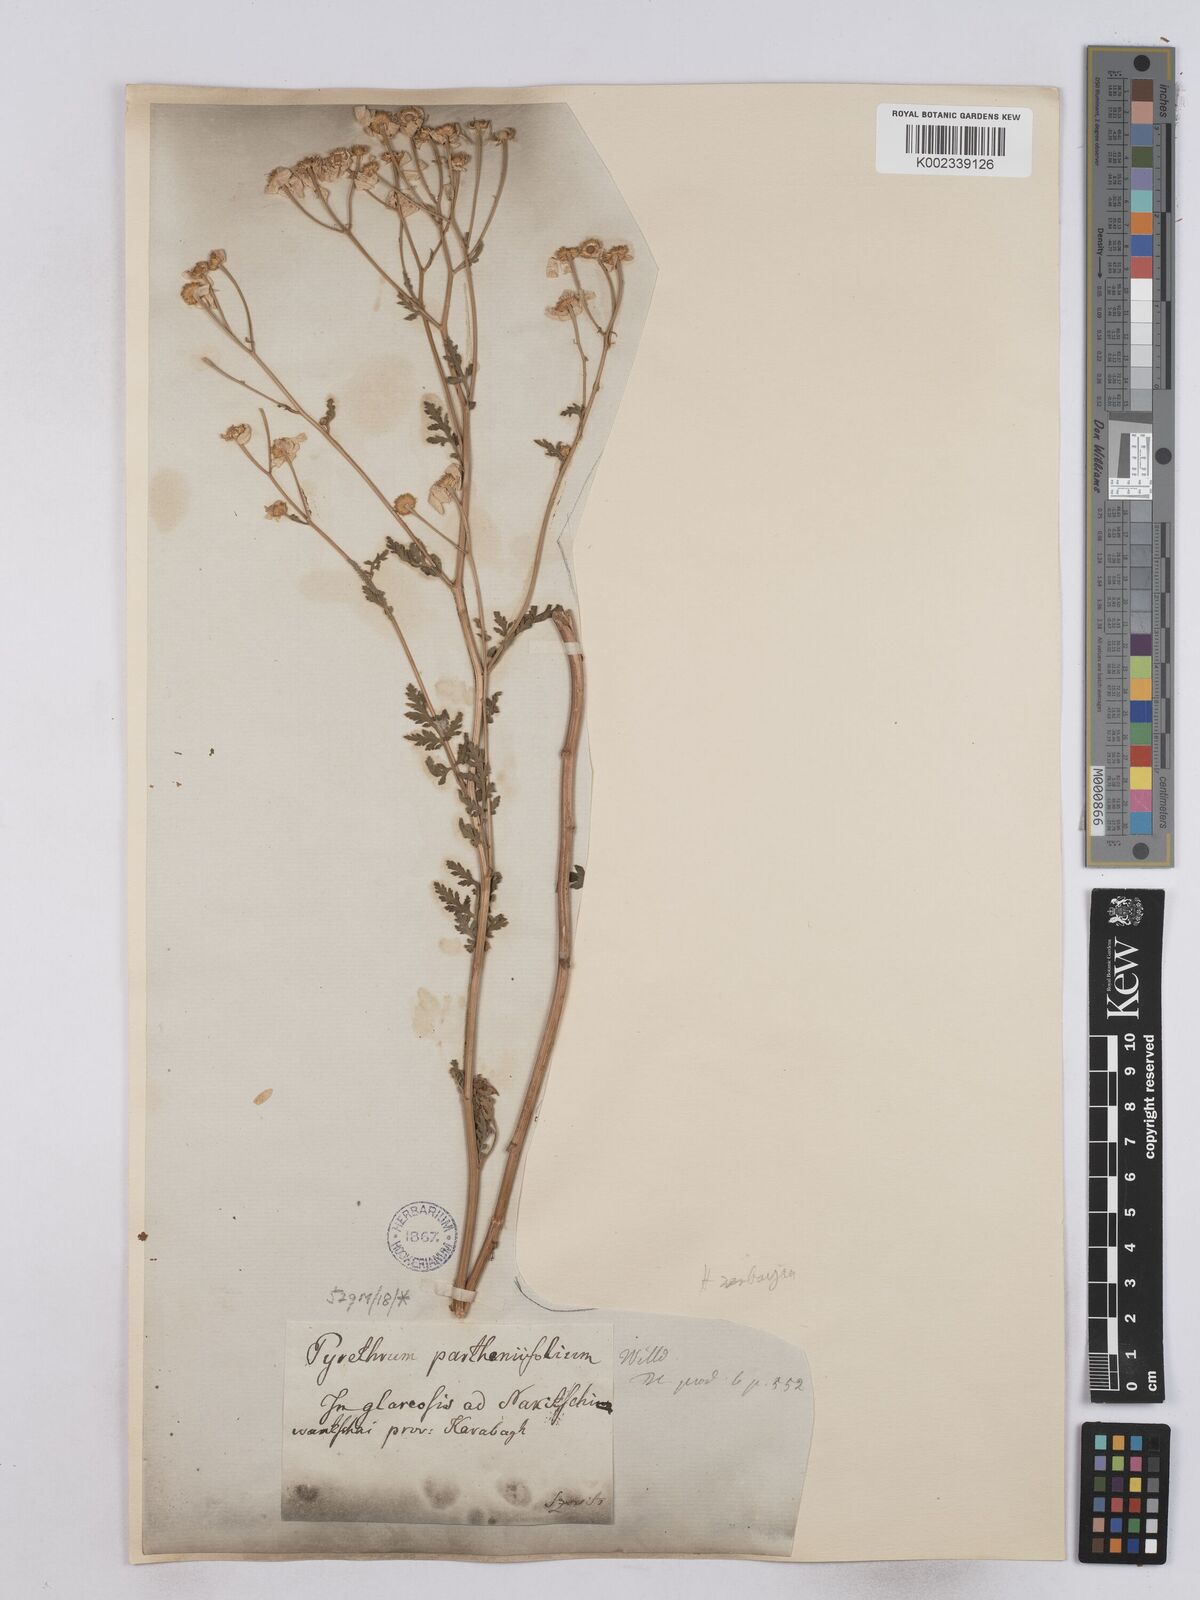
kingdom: Plantae
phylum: Tracheophyta
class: Magnoliopsida
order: Asterales
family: Asteraceae
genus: Tanacetum
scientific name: Tanacetum partheniifolium
